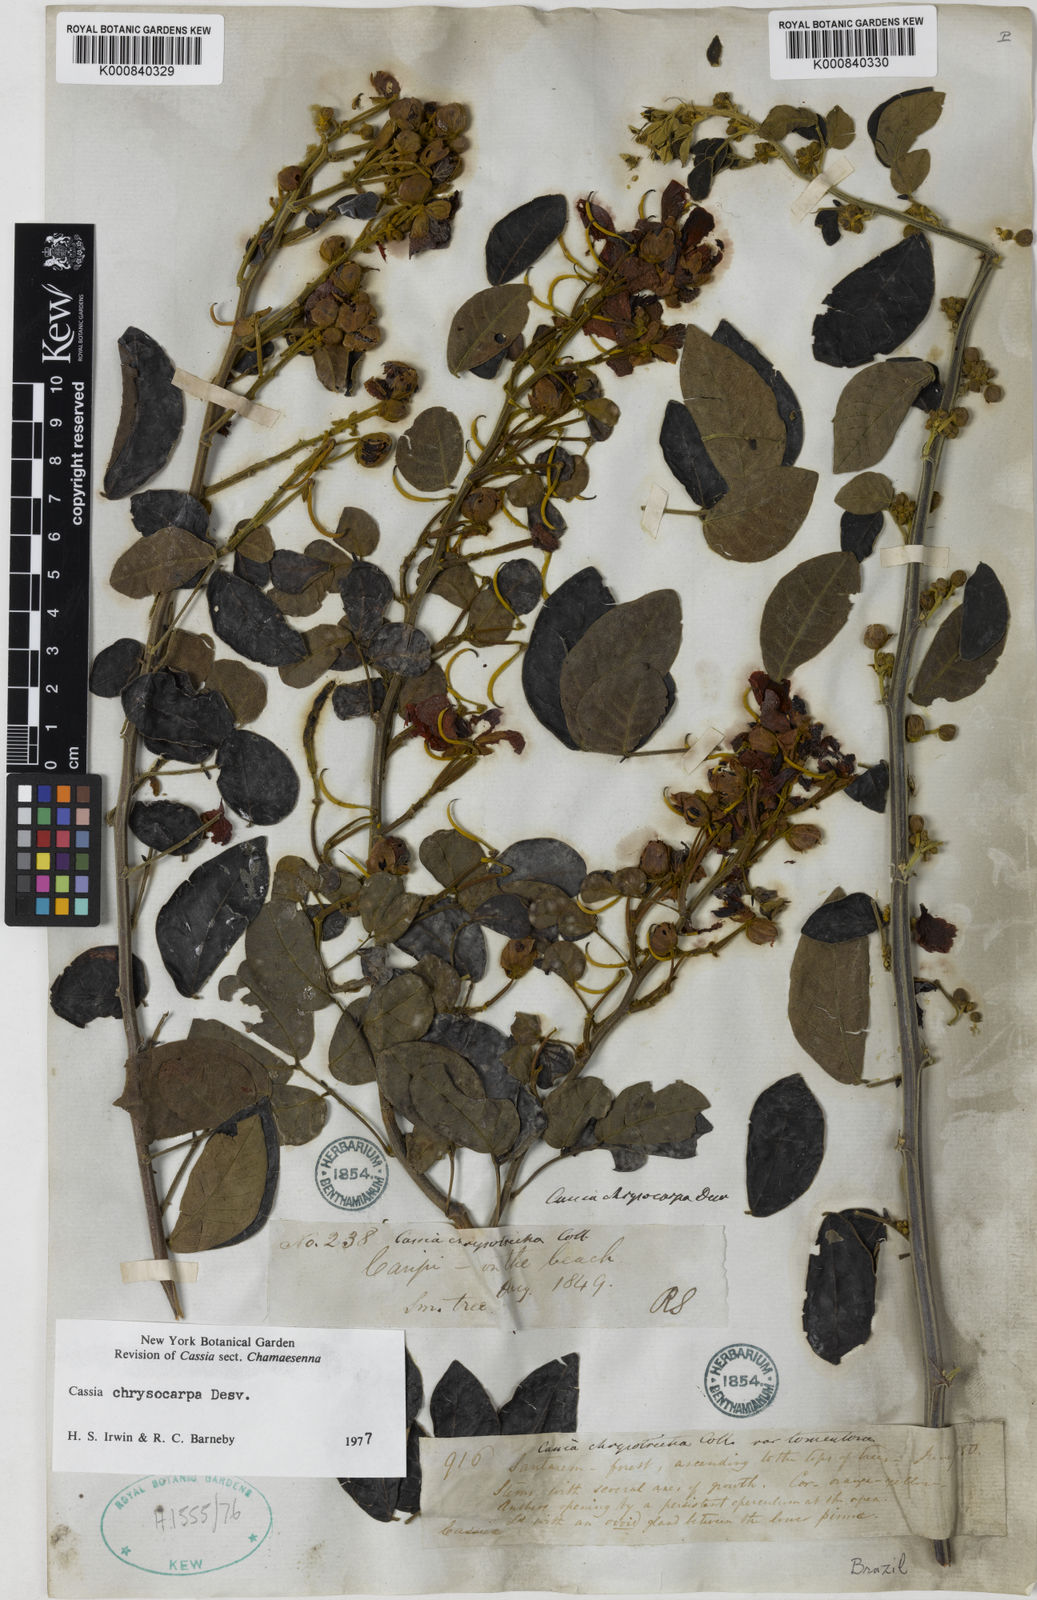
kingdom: Plantae
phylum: Tracheophyta
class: Magnoliopsida
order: Fabales
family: Fabaceae
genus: Senna
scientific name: Senna chrysocarpa
